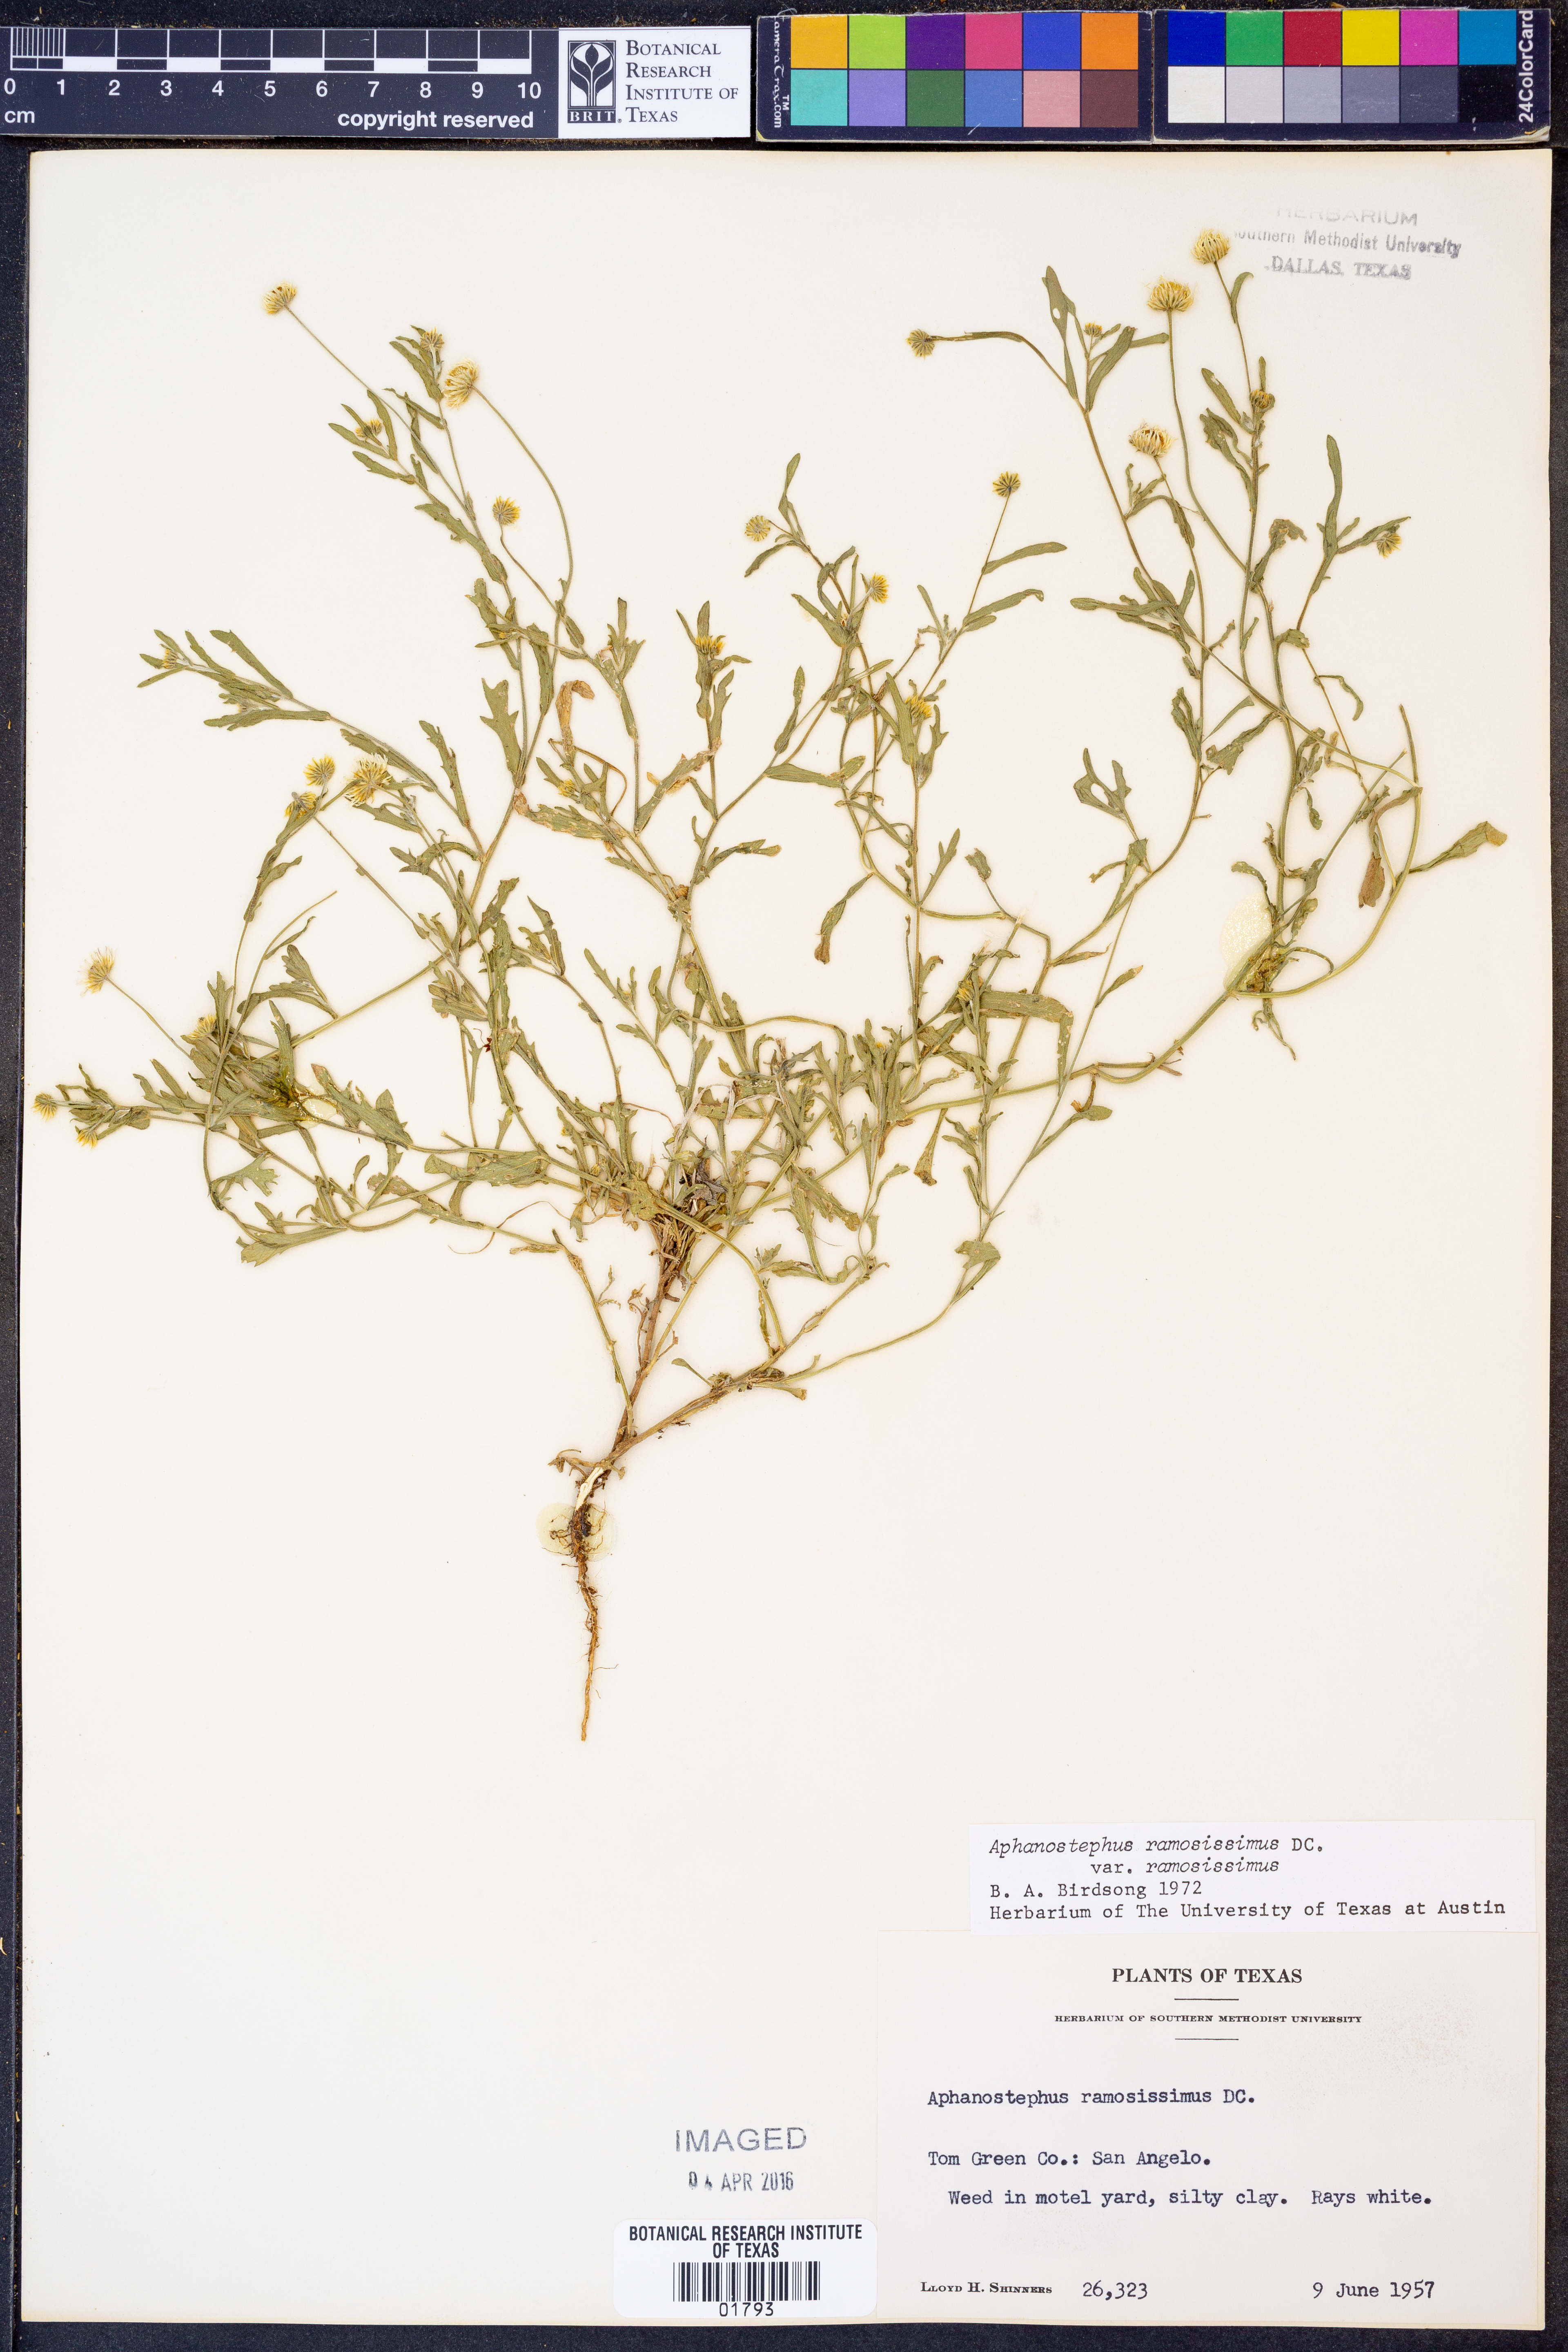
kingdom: Plantae
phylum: Tracheophyta
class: Magnoliopsida
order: Asterales
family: Asteraceae
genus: Aphanostephus
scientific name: Aphanostephus ramosissimus
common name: Plains lazy daisy
